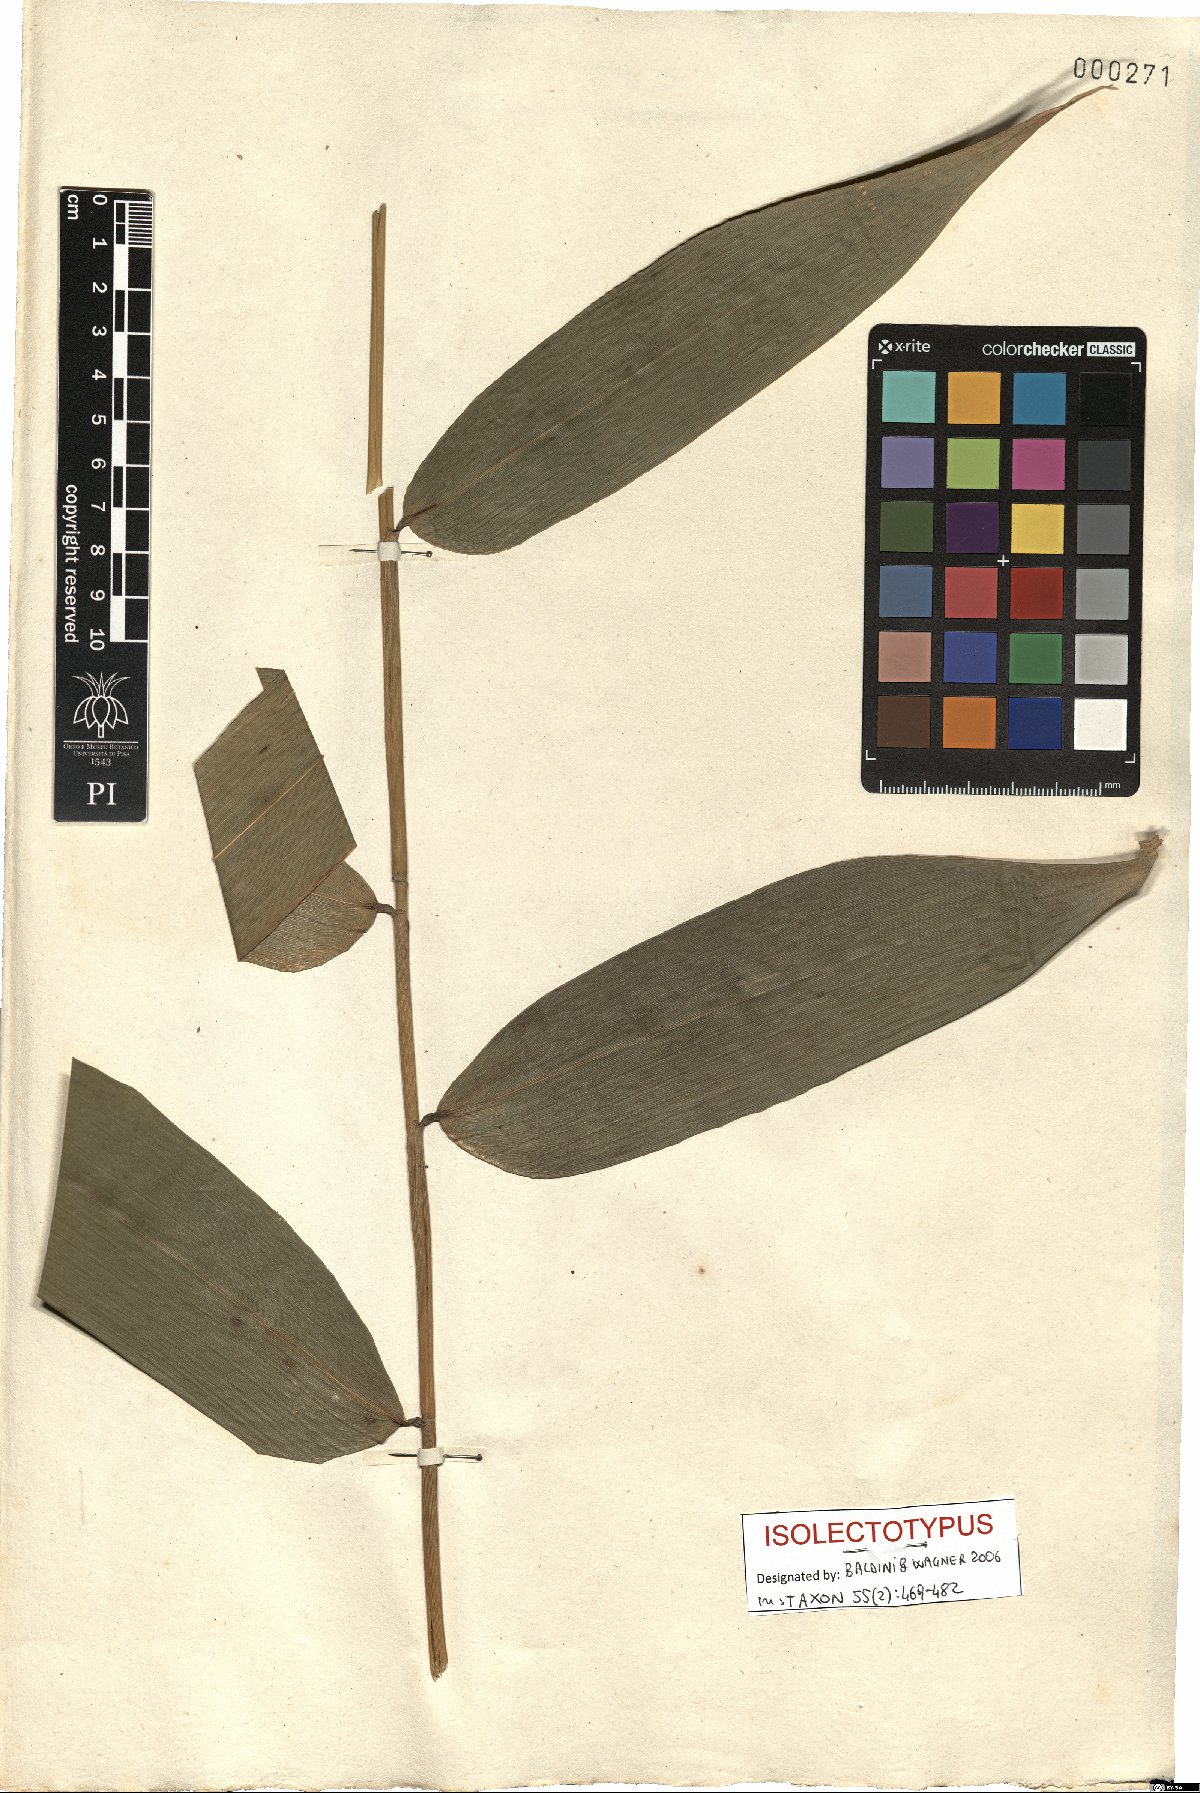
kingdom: Plantae
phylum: Tracheophyta
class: Liliopsida
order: Poales
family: Poaceae
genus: Olyra
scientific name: Olyra latifolia
